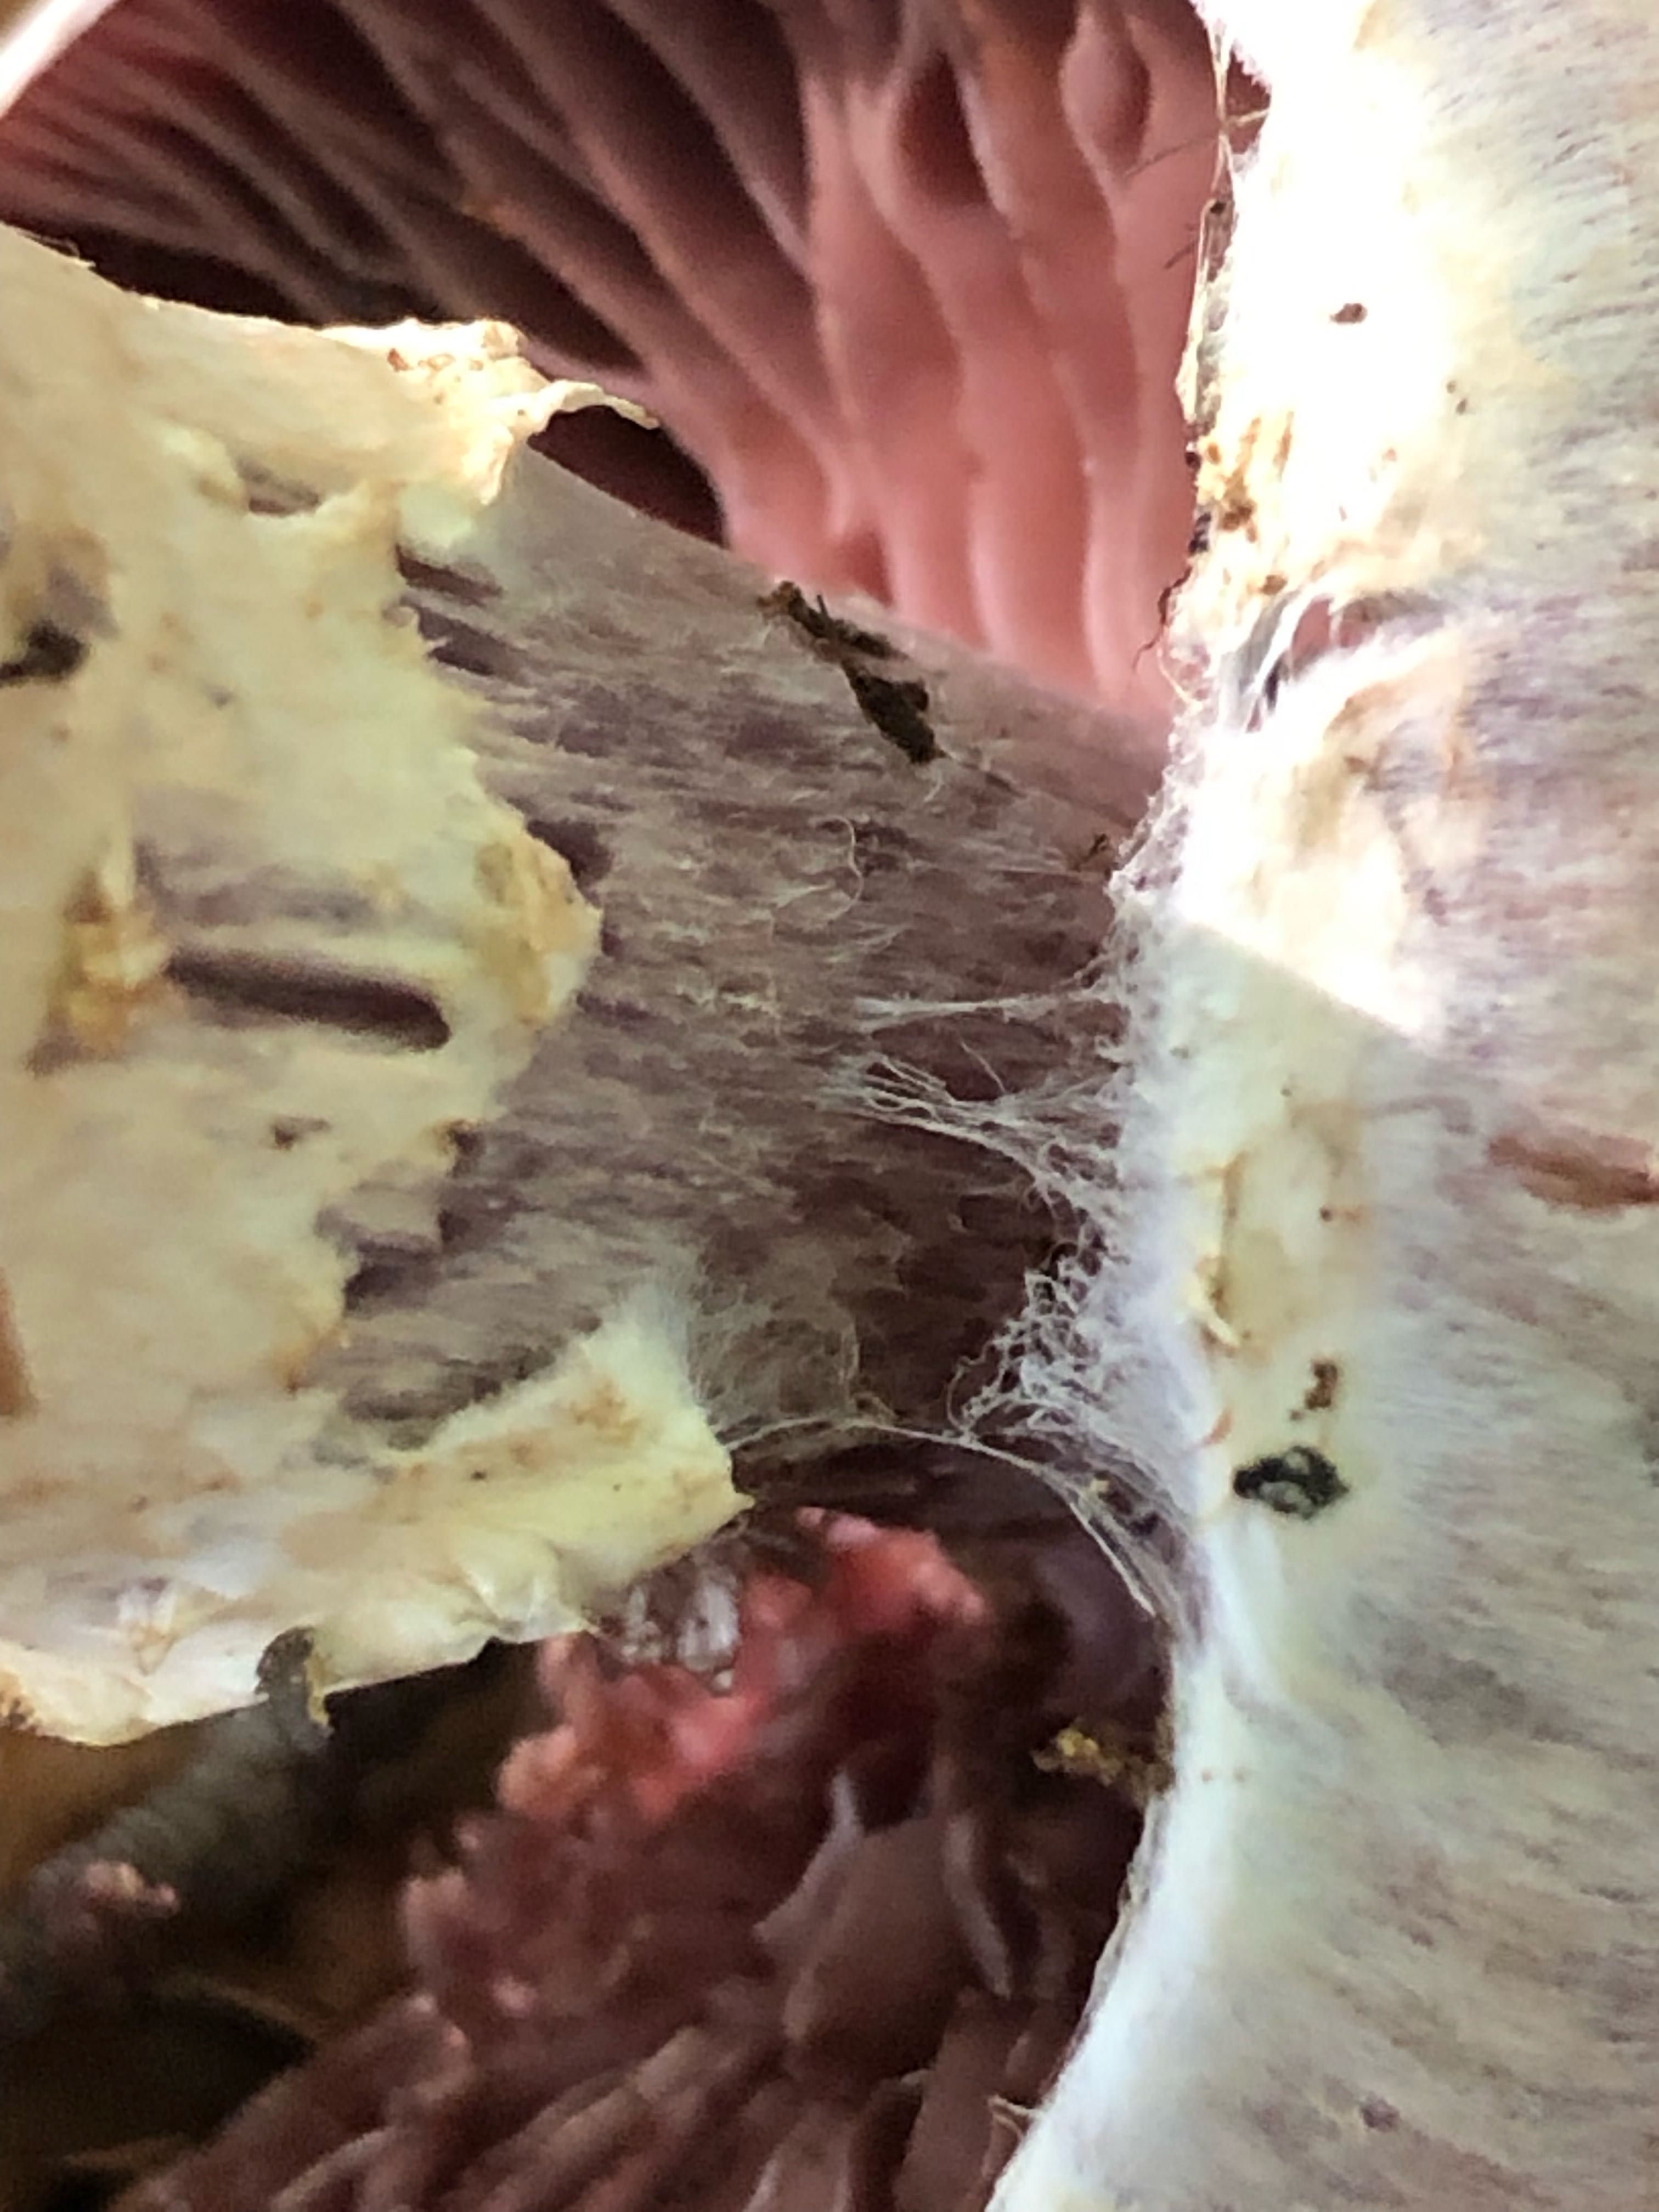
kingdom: Fungi
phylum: Basidiomycota
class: Agaricomycetes
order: Agaricales
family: Cortinariaceae
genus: Cortinarius
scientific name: Cortinarius torvus
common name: champignonagtig slørhat
